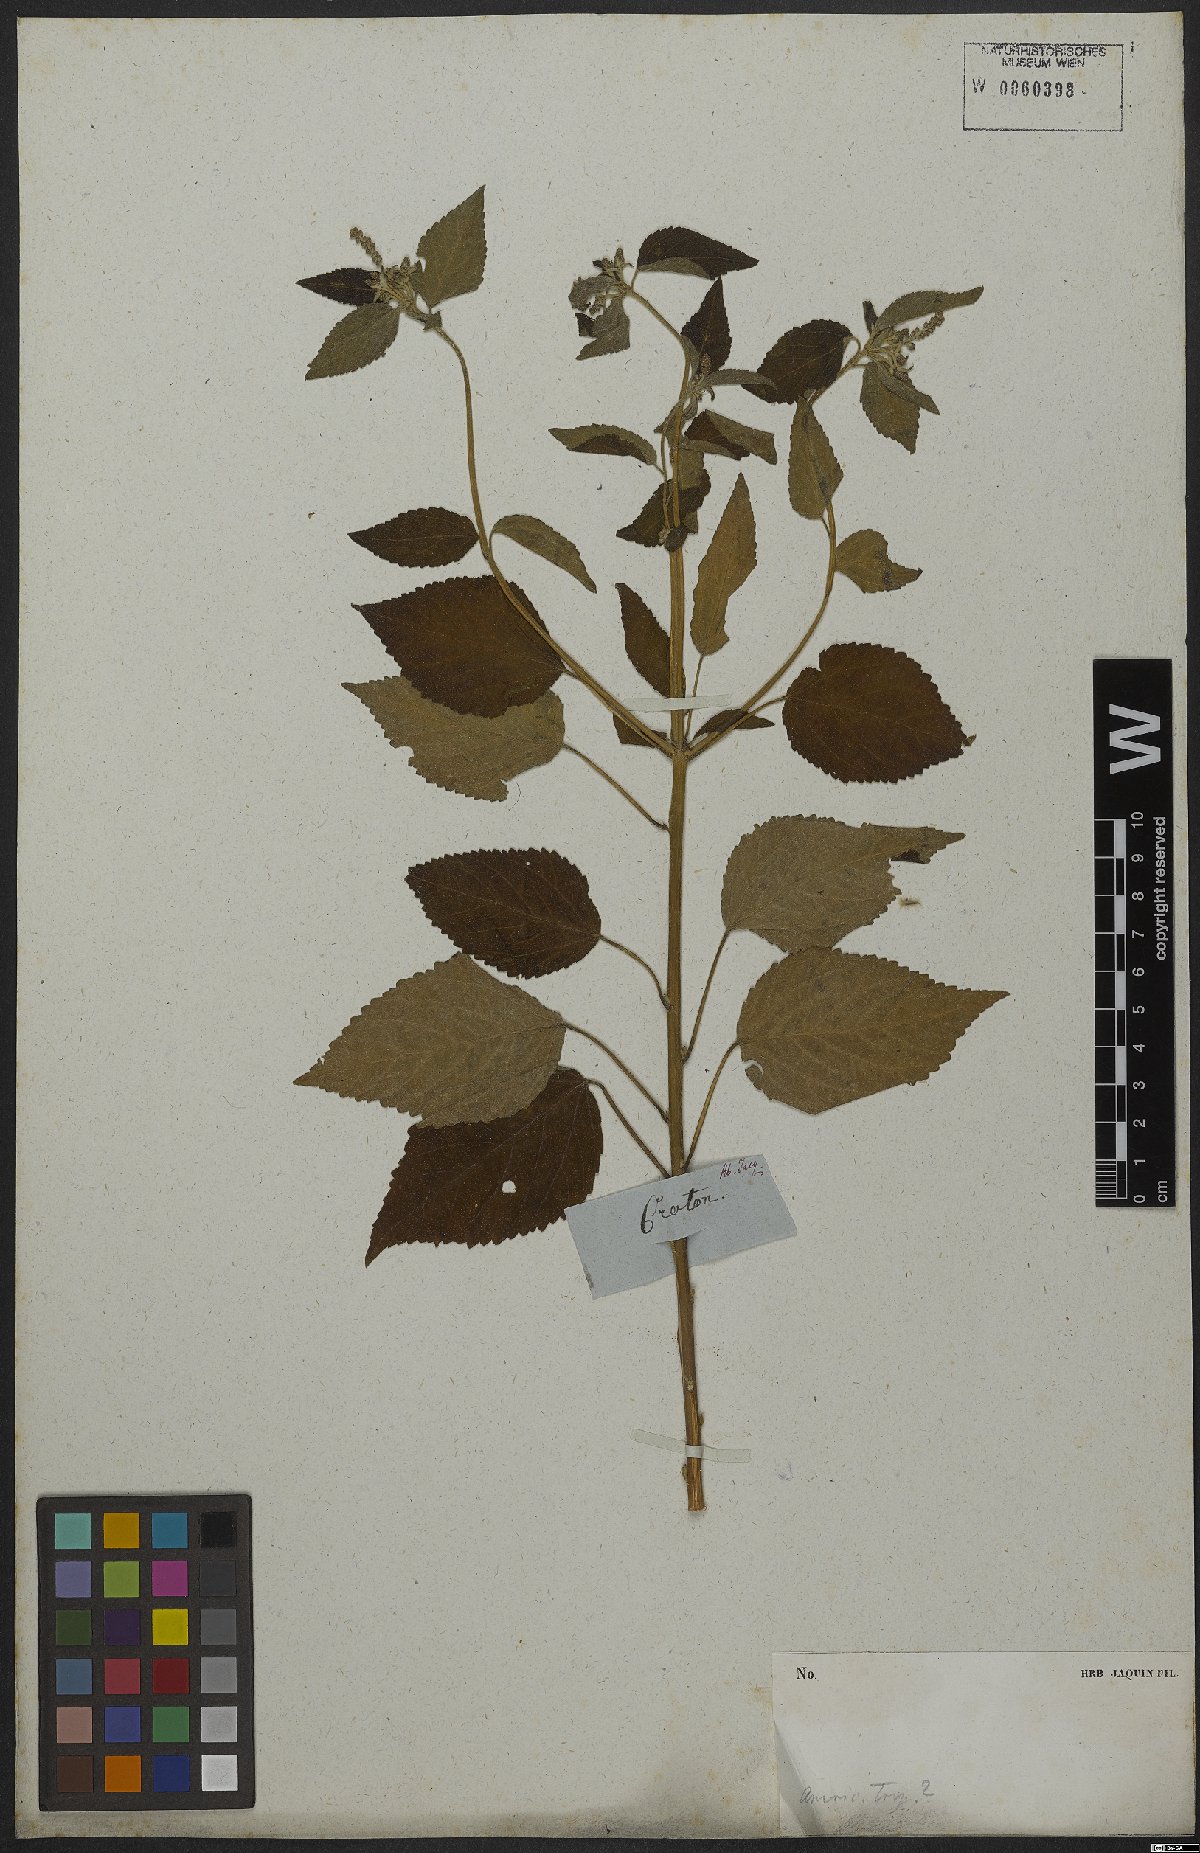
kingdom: Plantae
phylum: Tracheophyta
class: Magnoliopsida
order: Malpighiales
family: Euphorbiaceae
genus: Croton
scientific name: Croton urticifolius
